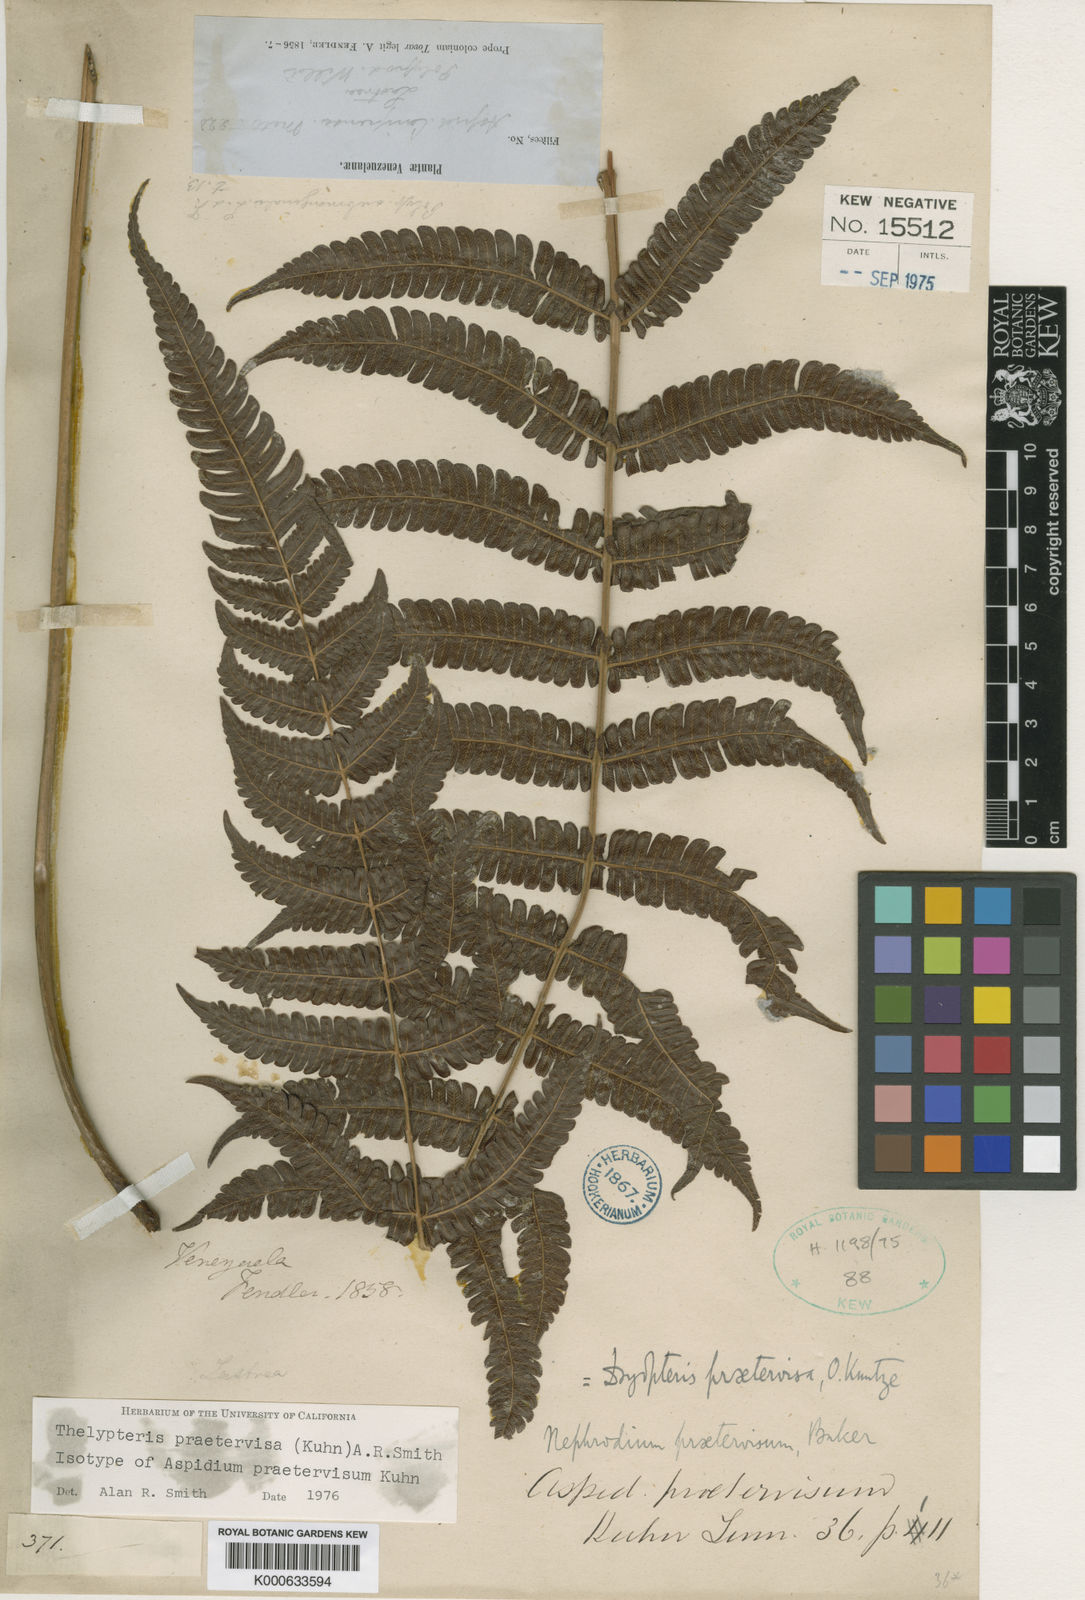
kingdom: Plantae
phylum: Tracheophyta
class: Polypodiopsida
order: Polypodiales
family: Thelypteridaceae
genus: Steiropteris
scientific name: Steiropteris praetervisa
